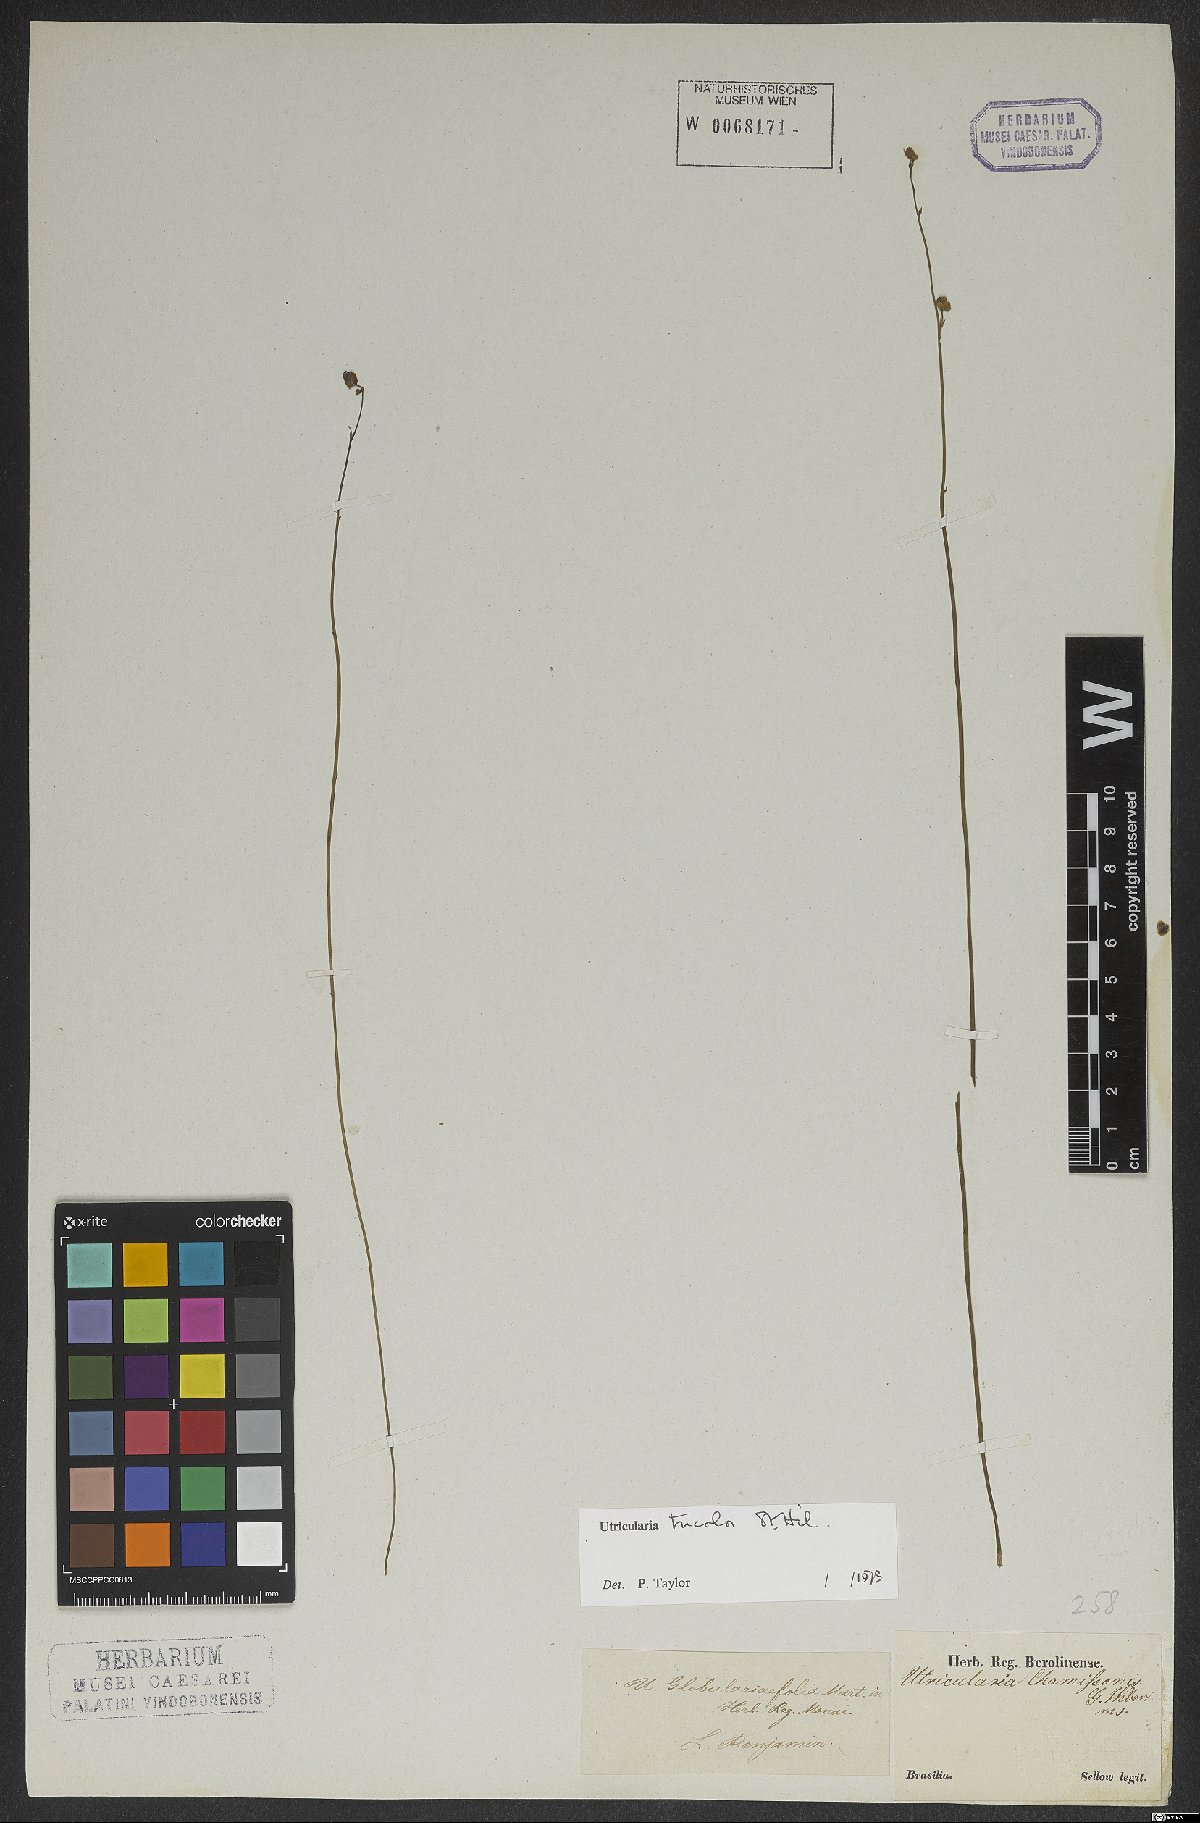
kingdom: Plantae
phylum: Tracheophyta
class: Magnoliopsida
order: Lamiales
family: Lentibulariaceae
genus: Utricularia
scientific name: Utricularia tricolor
